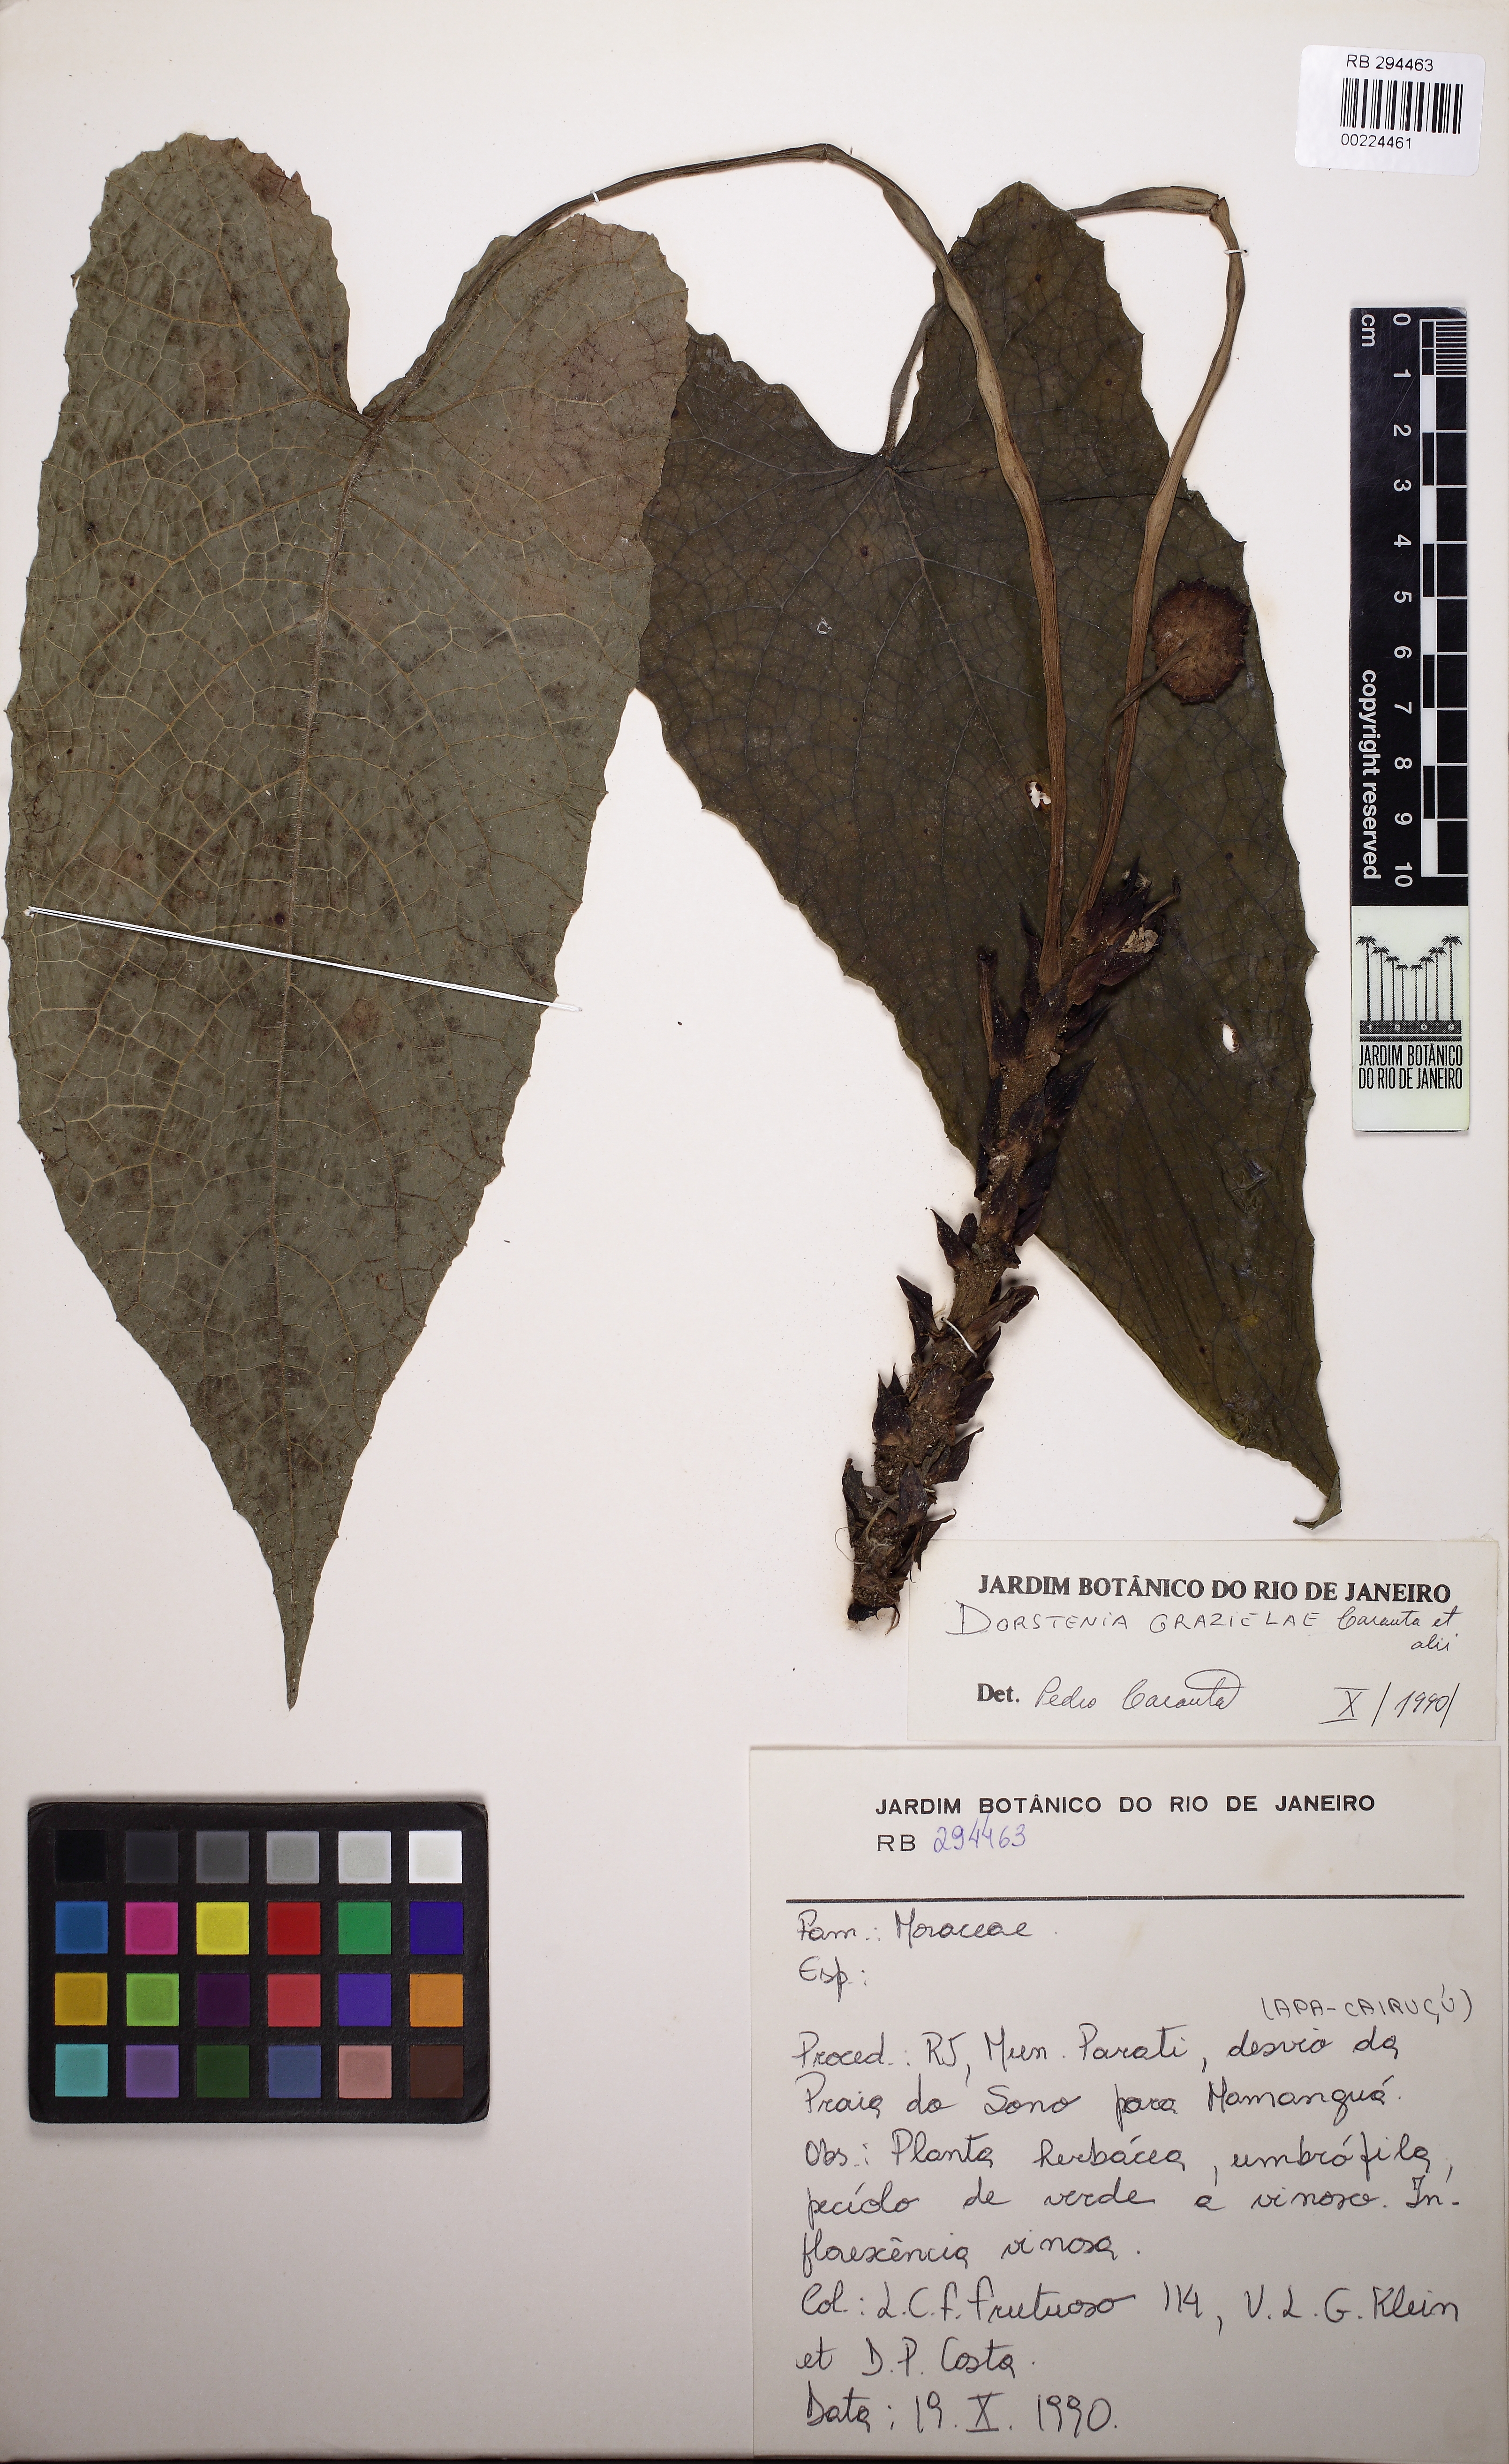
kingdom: Plantae
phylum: Tracheophyta
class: Magnoliopsida
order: Rosales
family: Moraceae
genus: Dorstenia
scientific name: Dorstenia grazielae
